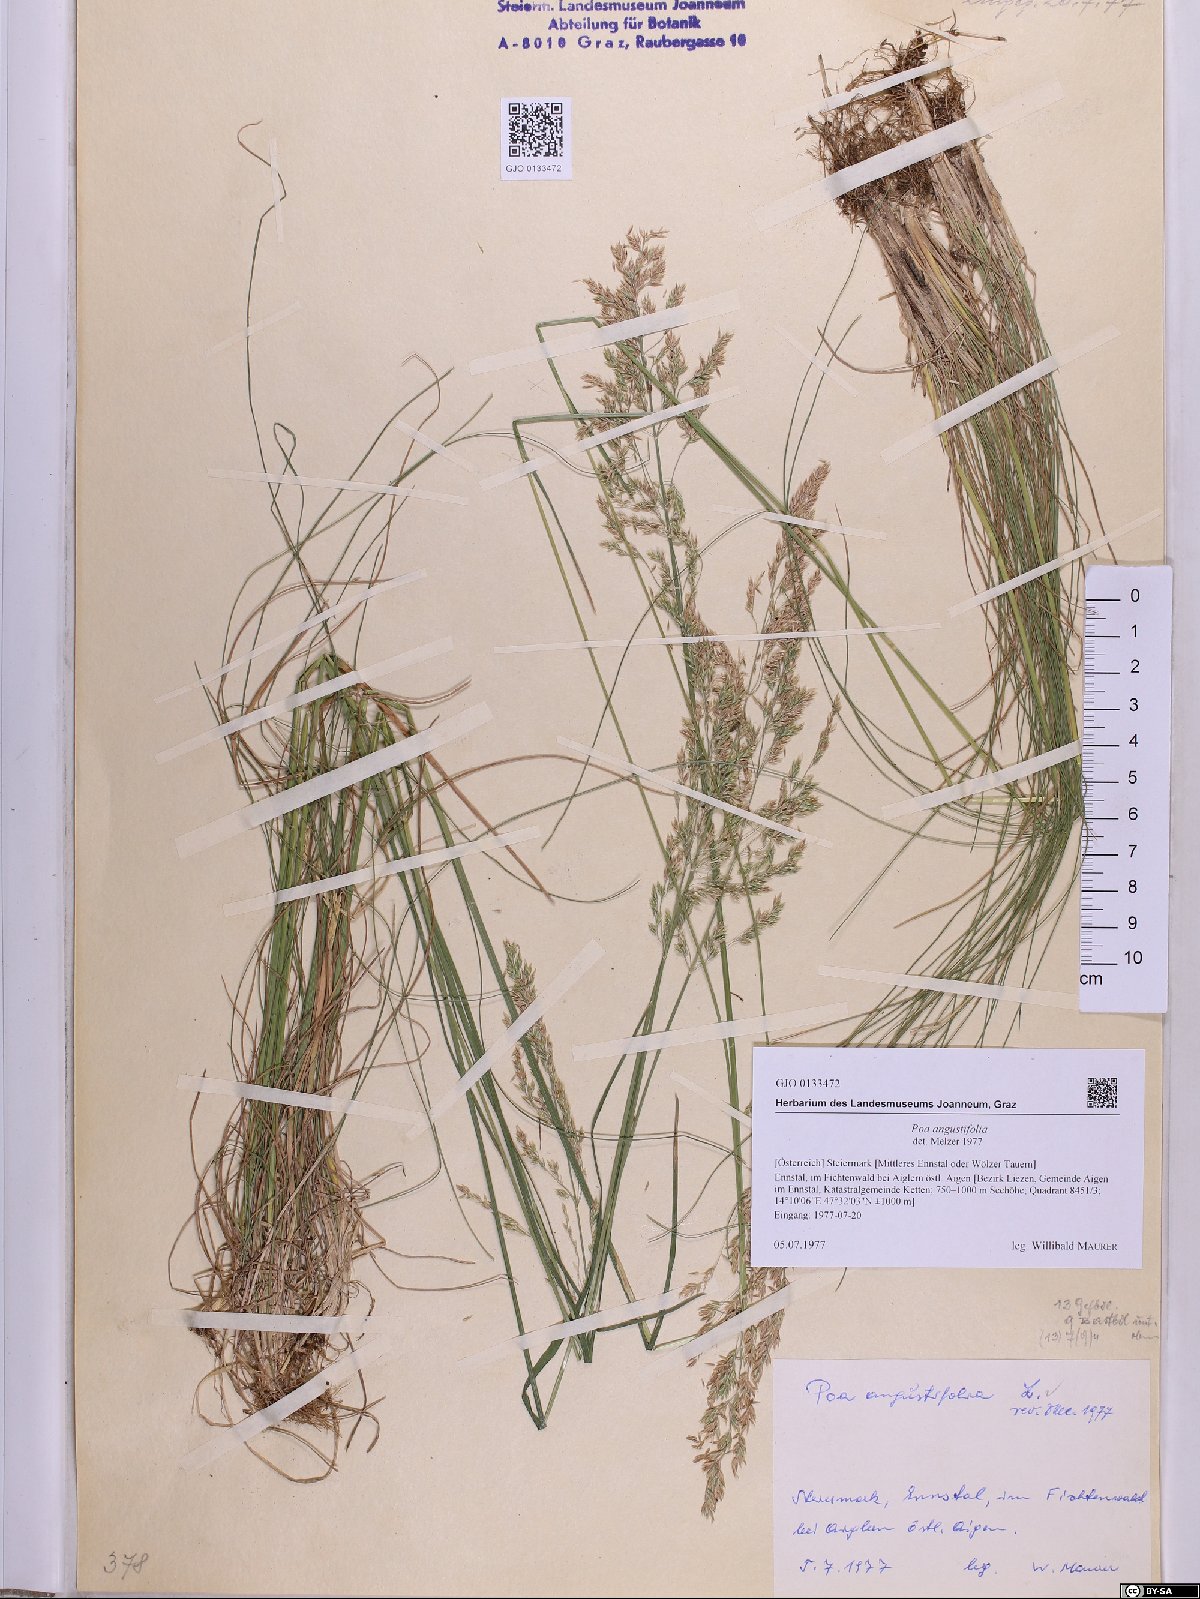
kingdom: Plantae
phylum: Tracheophyta
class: Liliopsida
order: Poales
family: Poaceae
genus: Poa
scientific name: Poa angustifolia
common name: Narrow-leaved meadow-grass
